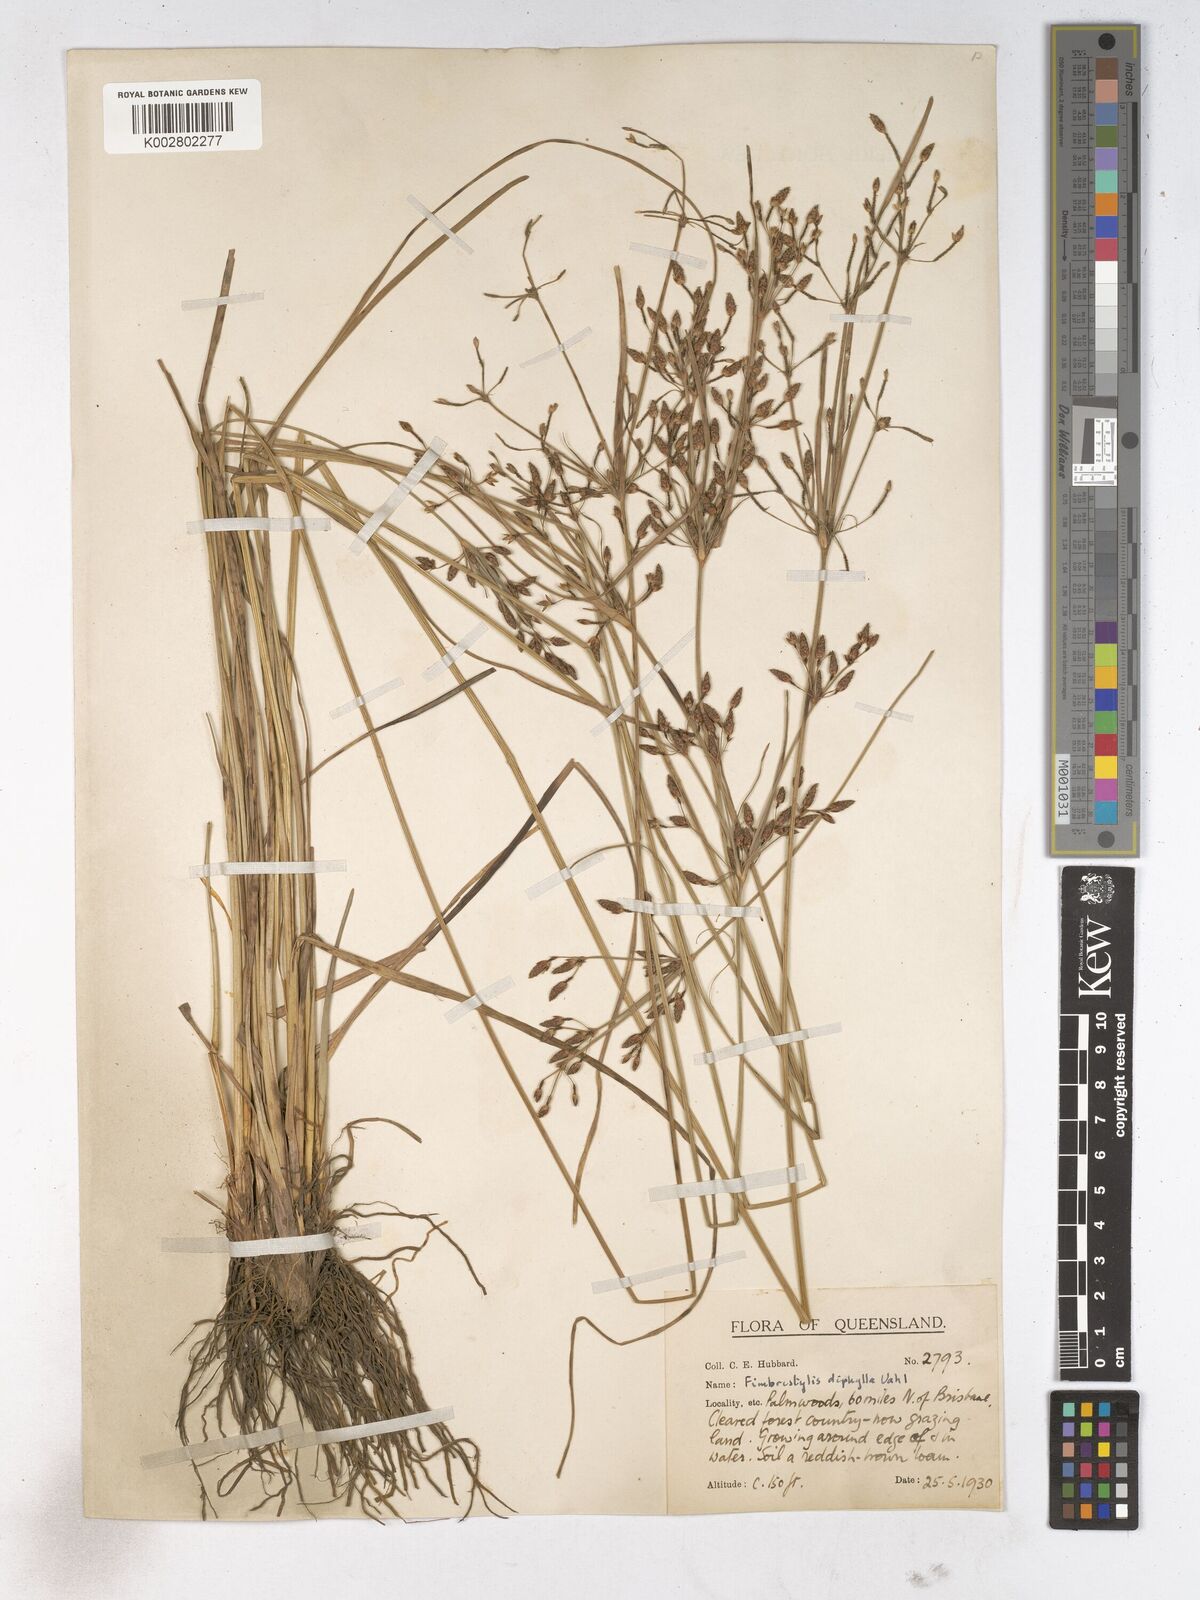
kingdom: Plantae
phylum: Tracheophyta
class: Liliopsida
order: Poales
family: Cyperaceae
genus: Fimbristylis
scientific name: Fimbristylis dichotoma
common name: Forked fimbry
